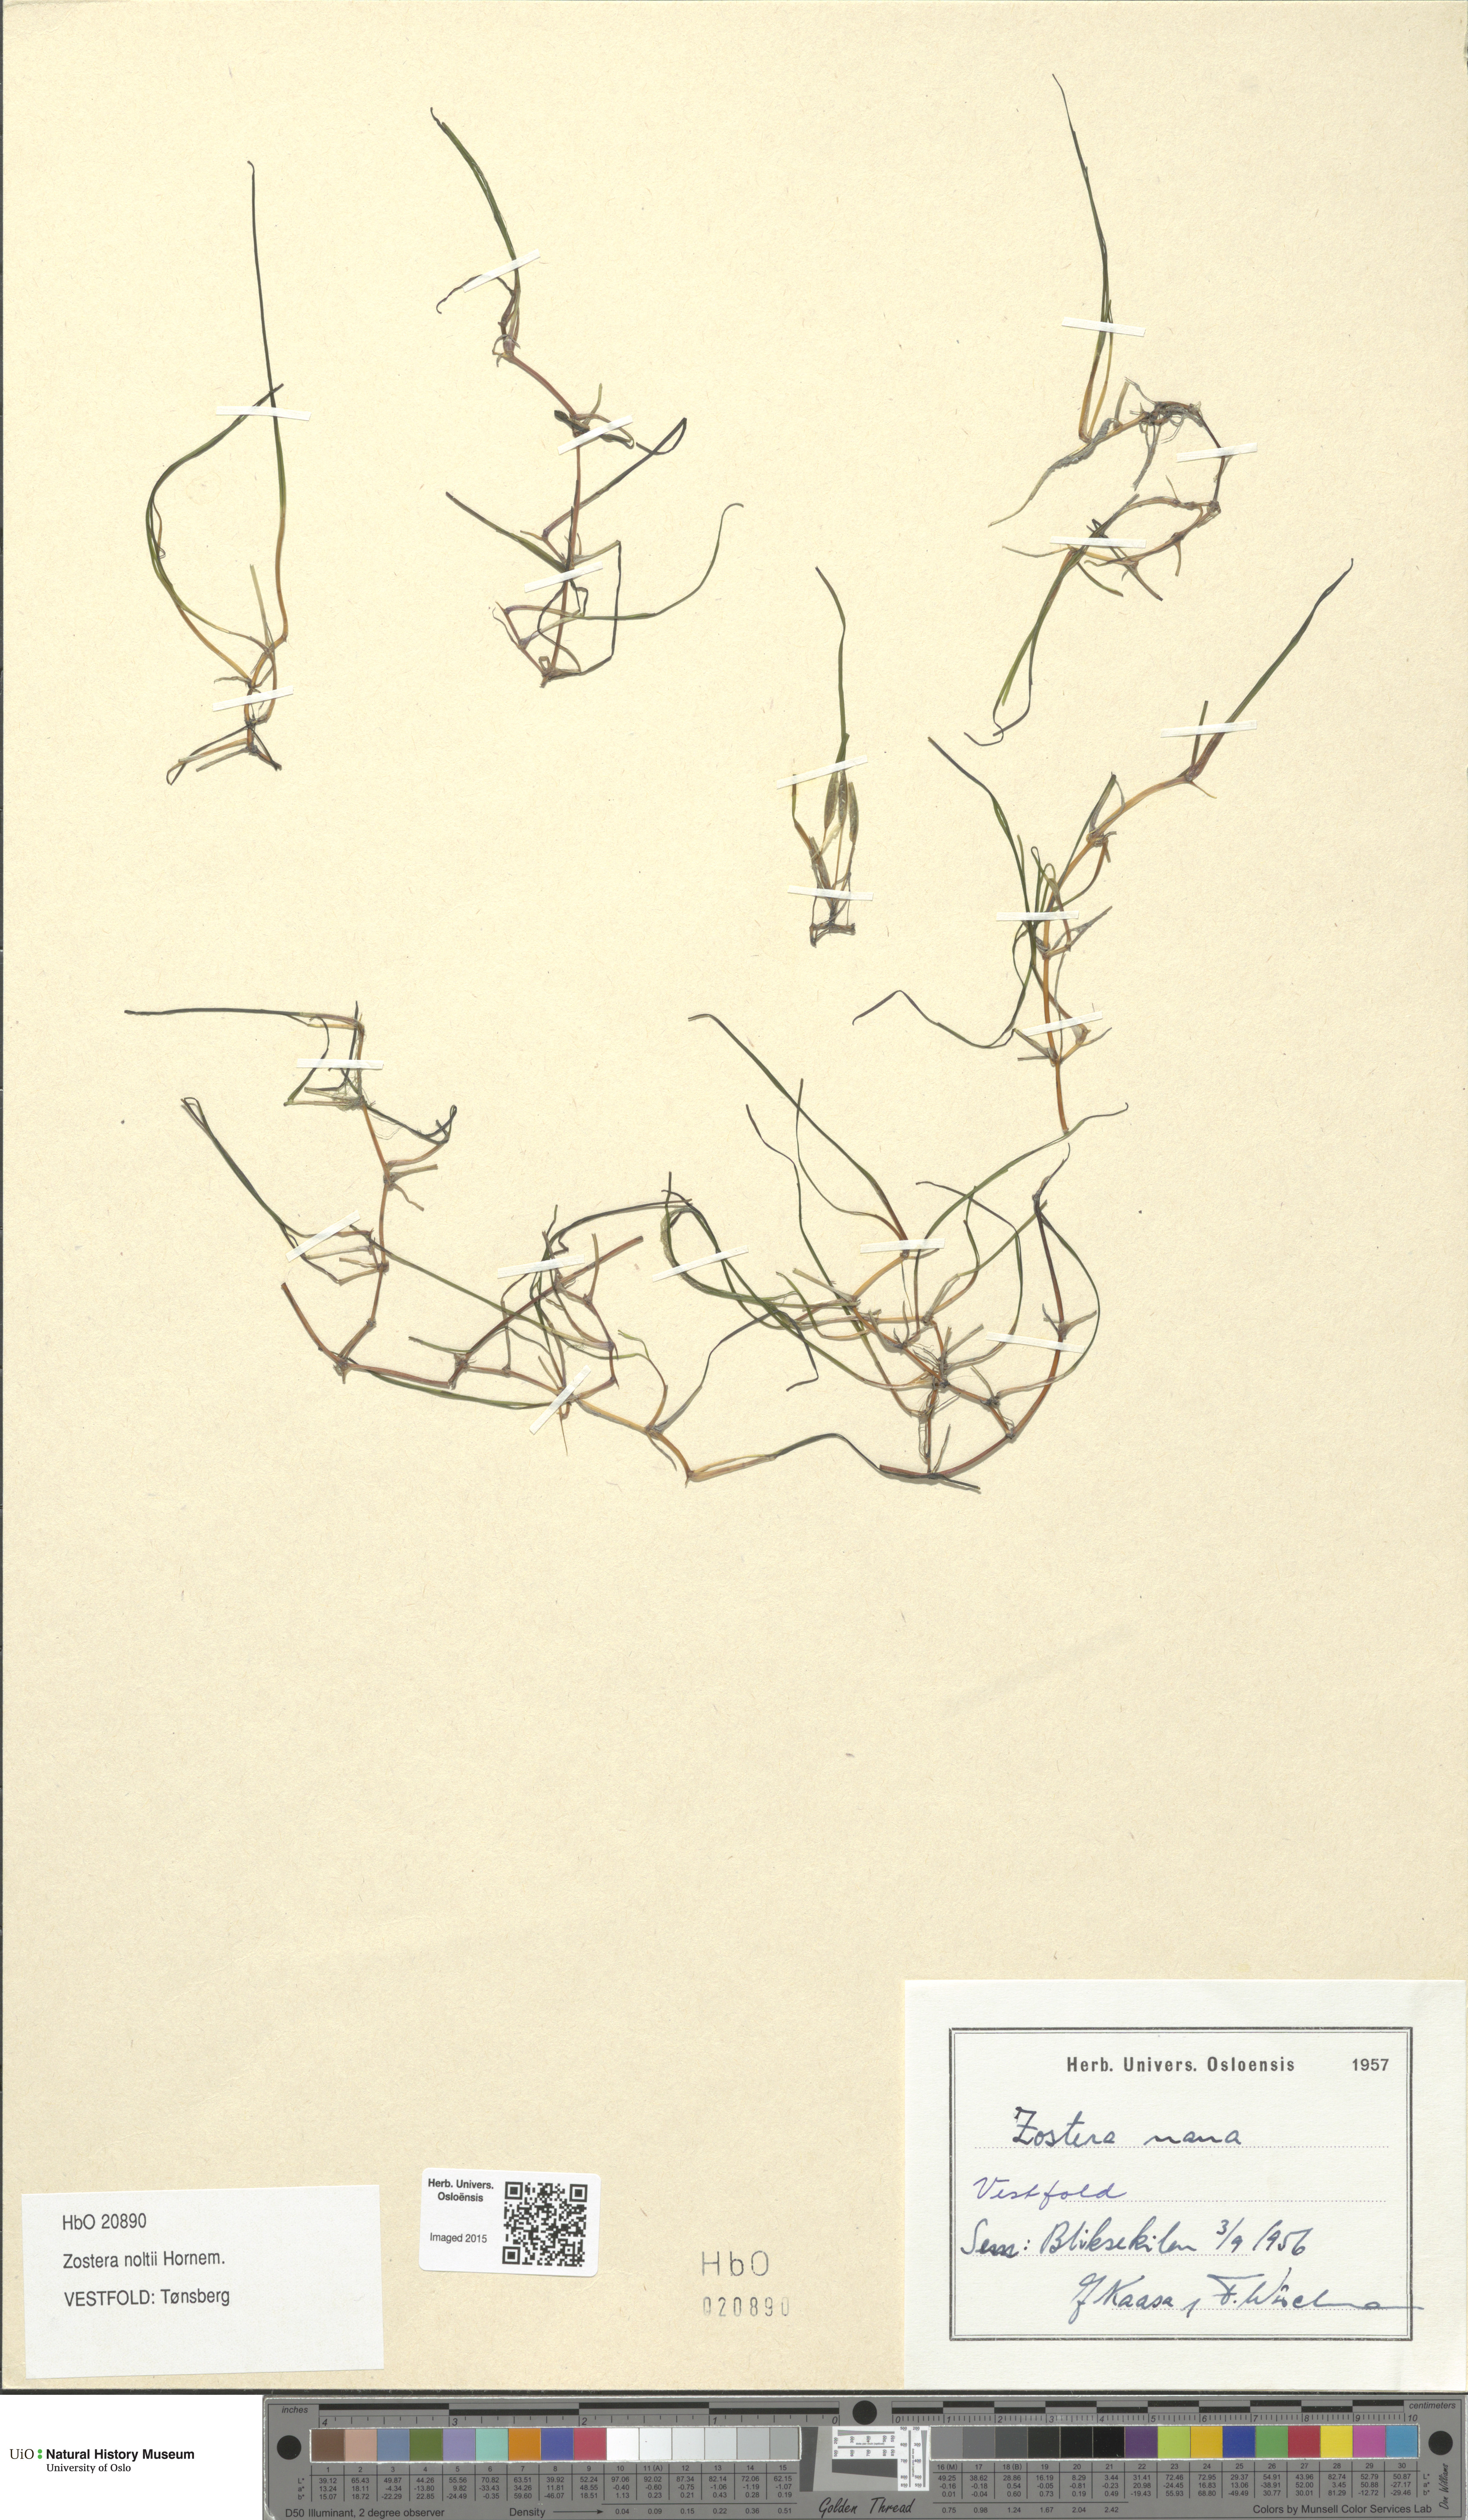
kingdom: Plantae
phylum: Tracheophyta
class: Liliopsida
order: Alismatales
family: Zosteraceae
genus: Zostera
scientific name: Zostera noltii
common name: Dwarf eelgrass
